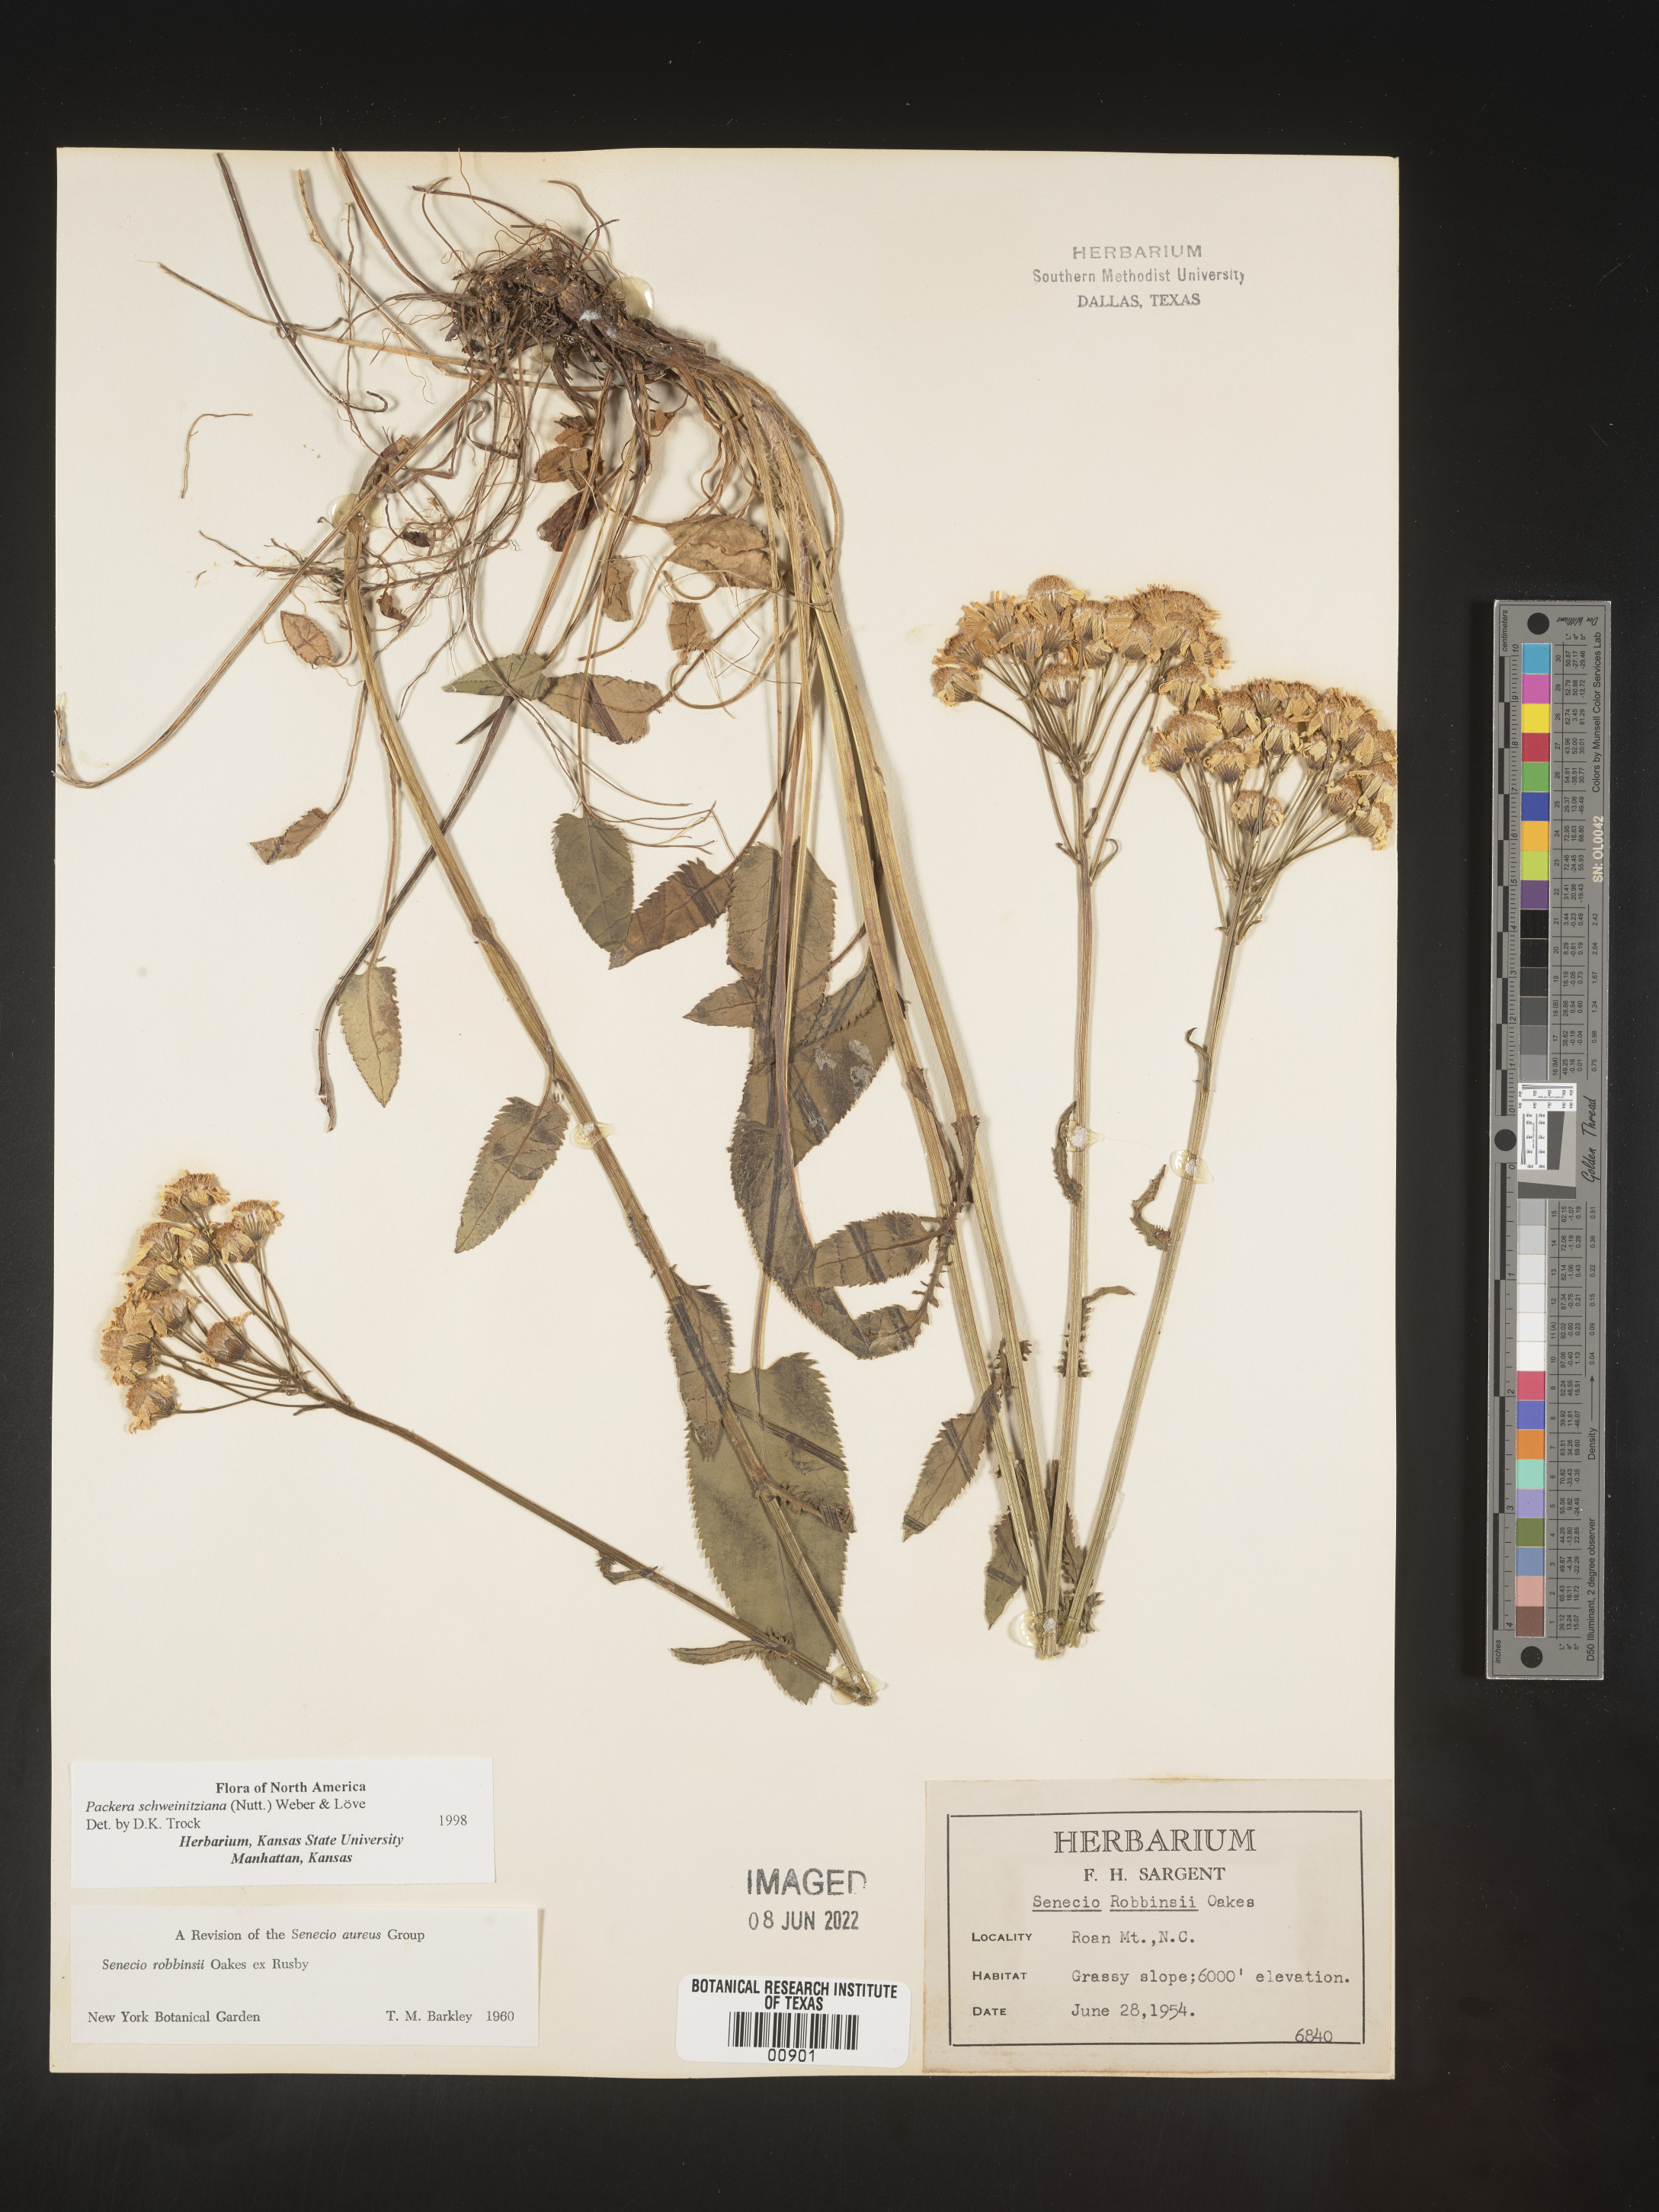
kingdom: Plantae
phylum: Tracheophyta
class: Magnoliopsida
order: Asterales
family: Asteraceae
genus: Packera
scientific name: Packera schweinitziana
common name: Schweinitz's ragwort
